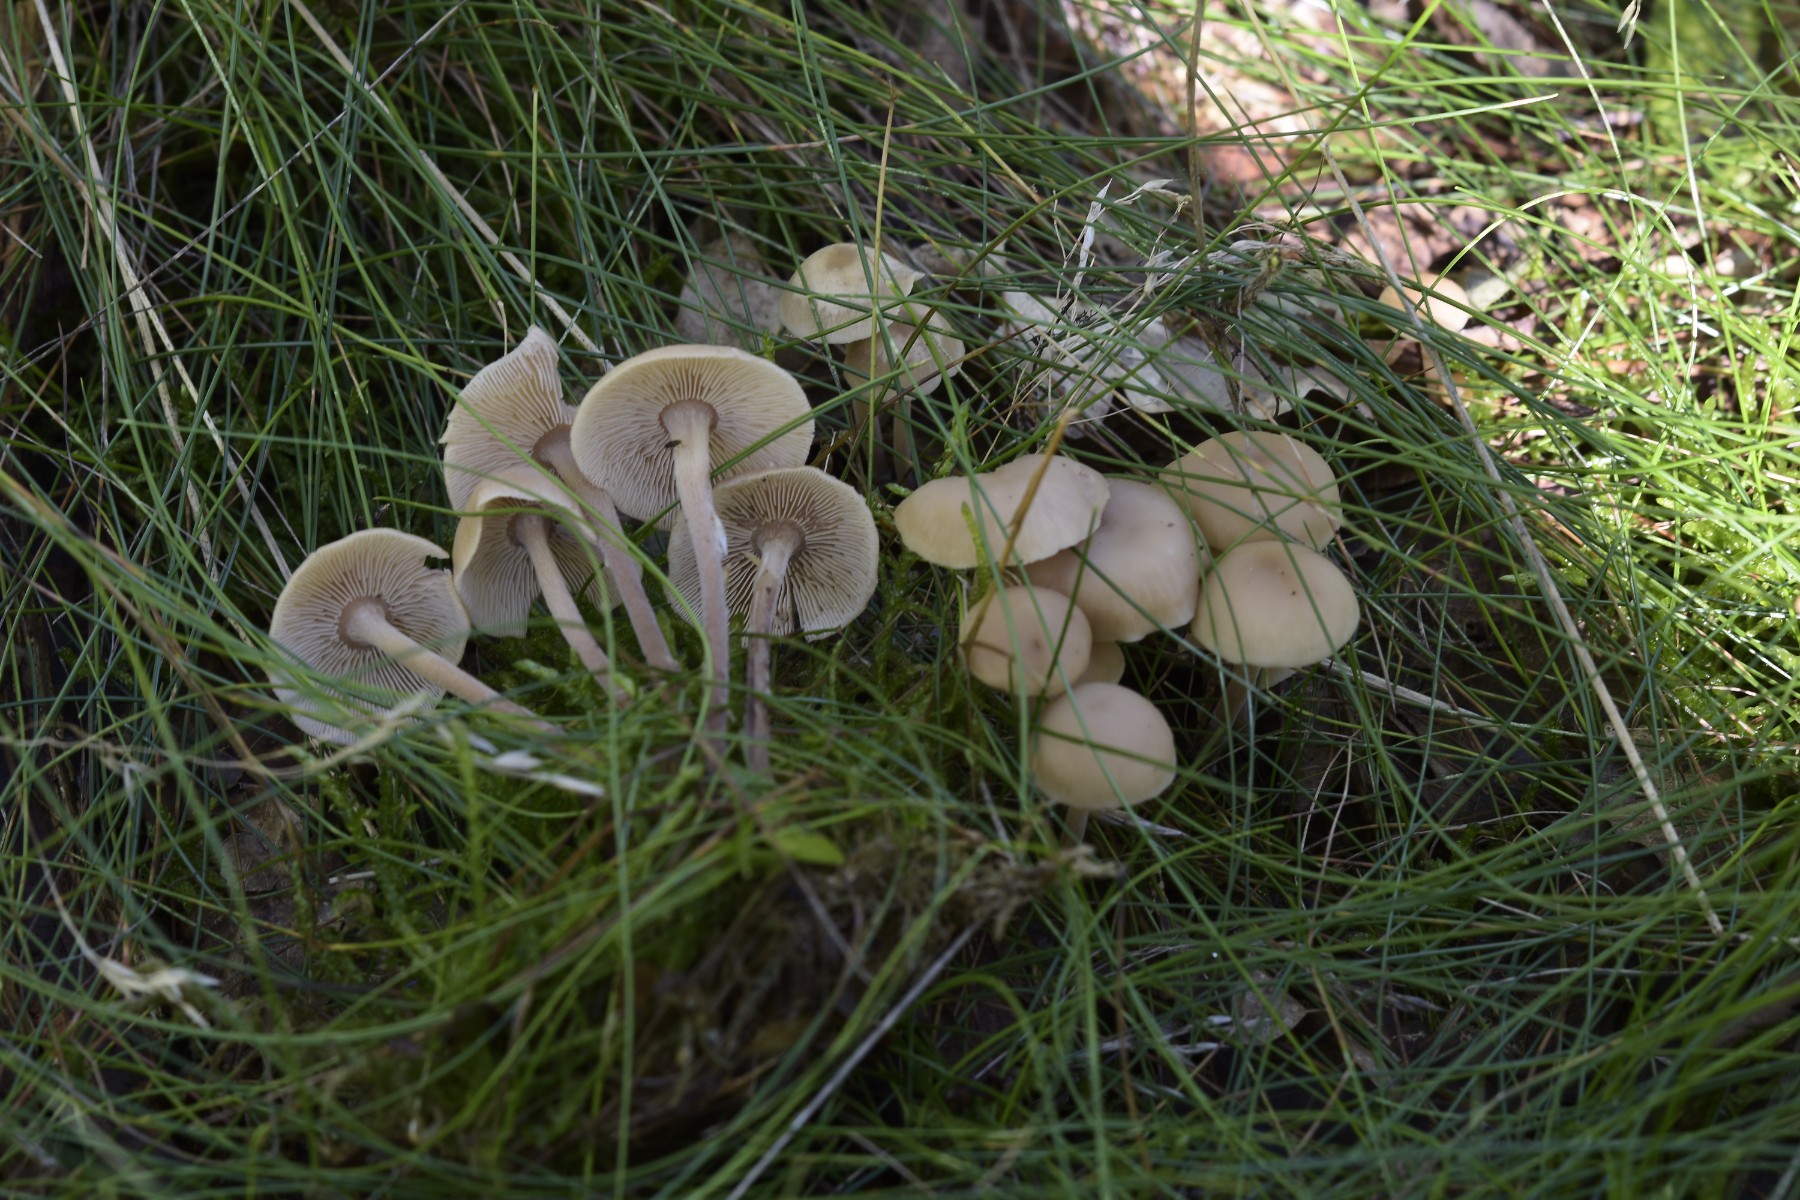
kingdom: Fungi
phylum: Basidiomycota
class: Agaricomycetes
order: Agaricales
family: Omphalotaceae
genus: Collybiopsis
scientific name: Collybiopsis confluens
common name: knippe-fladhat
